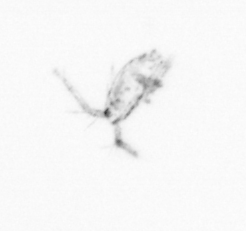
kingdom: Animalia
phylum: Arthropoda
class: Copepoda
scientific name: Copepoda
